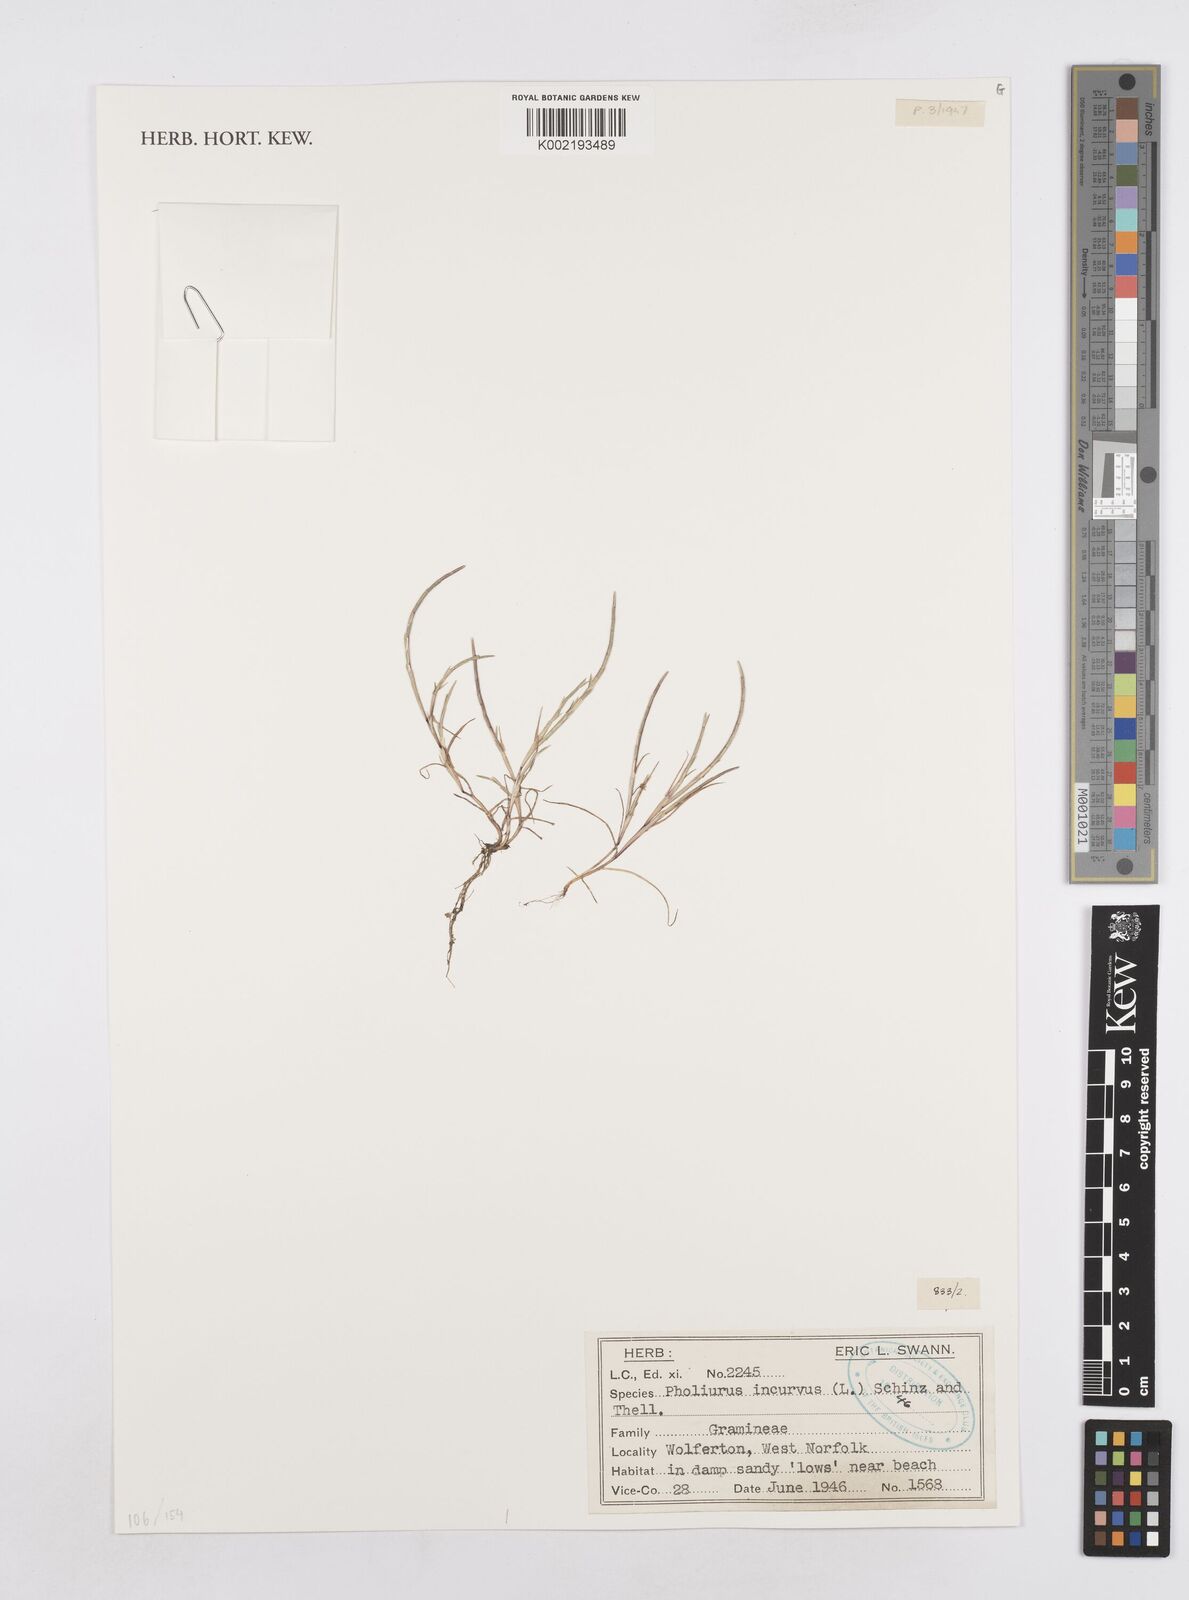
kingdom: Plantae
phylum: Tracheophyta
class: Liliopsida
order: Poales
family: Poaceae
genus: Parapholis
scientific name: Parapholis incurva
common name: Curved sicklegrass
